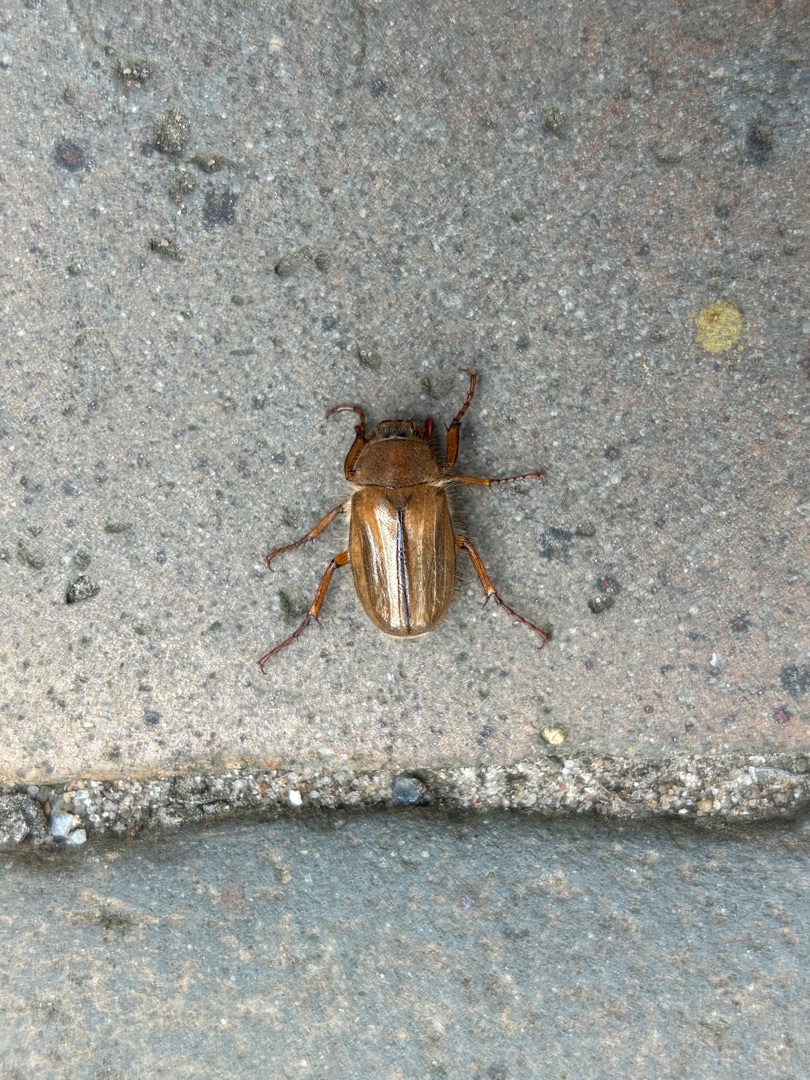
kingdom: Animalia
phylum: Arthropoda
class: Insecta
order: Coleoptera
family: Scarabaeidae
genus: Amphimallon
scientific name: Amphimallon solstitiale
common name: Sankthansoldenborre
